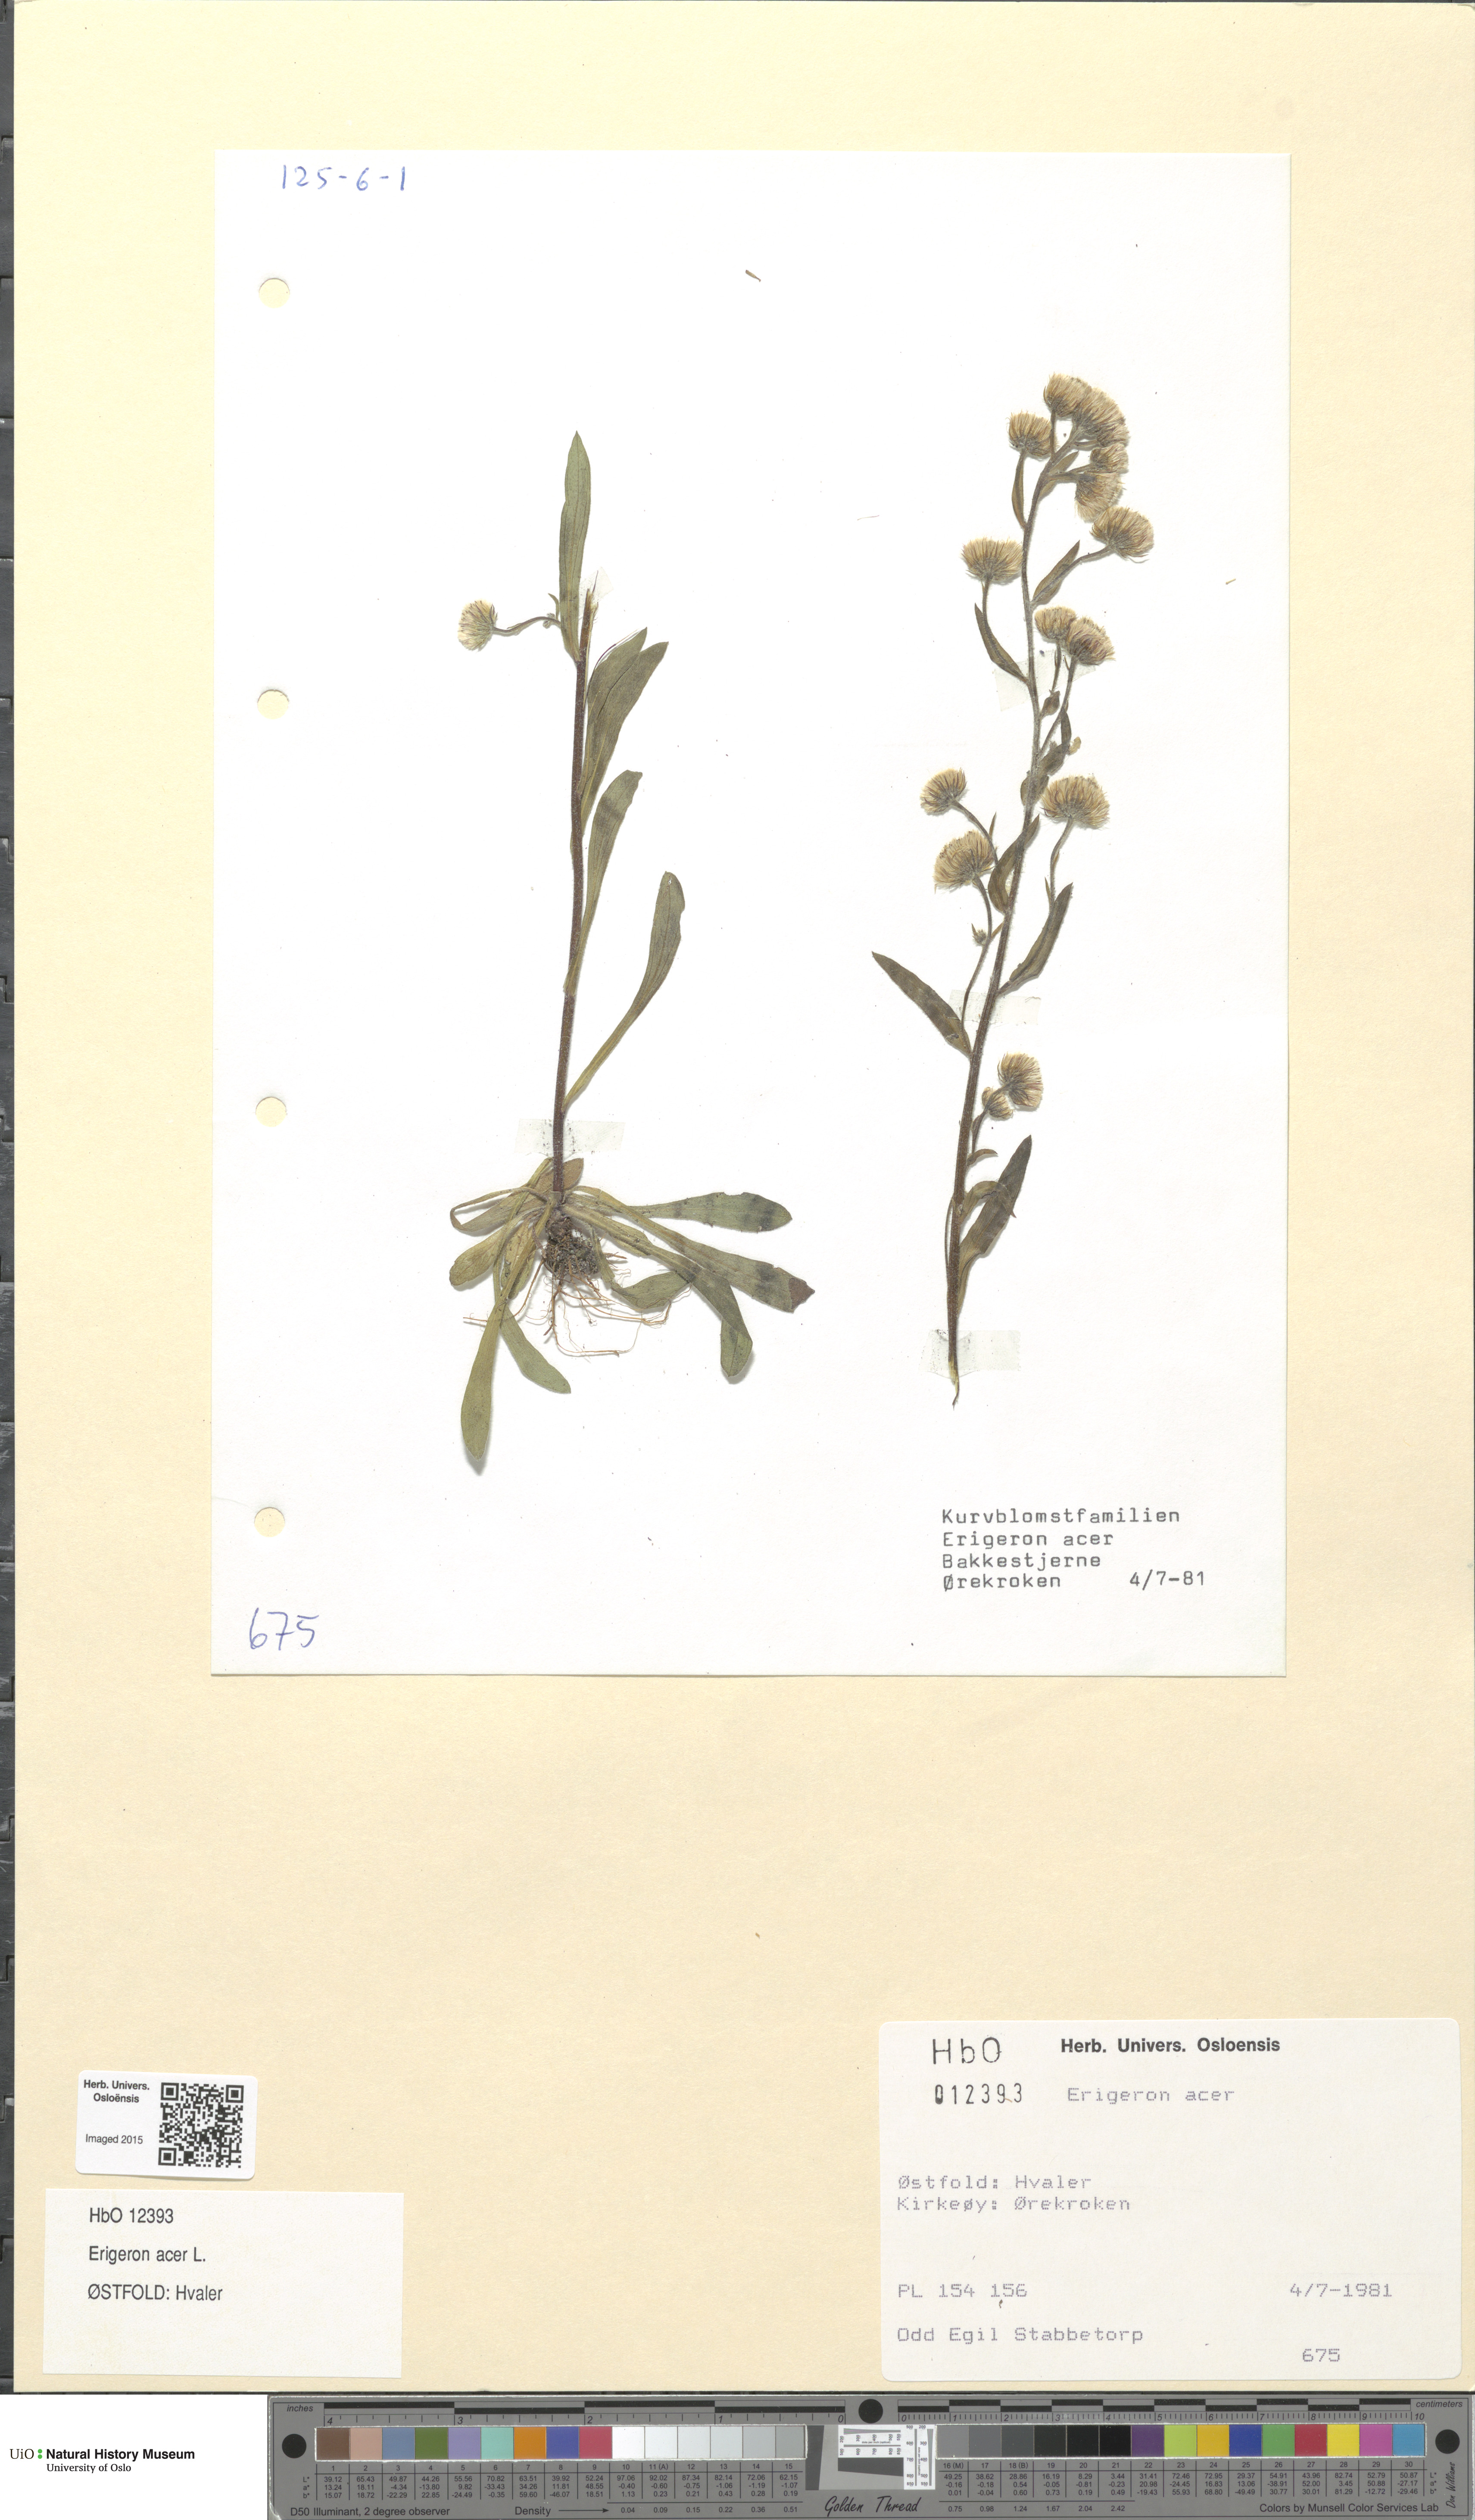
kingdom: Plantae
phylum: Tracheophyta
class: Magnoliopsida
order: Asterales
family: Asteraceae
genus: Erigeron
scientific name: Erigeron acris
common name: Blue fleabane
